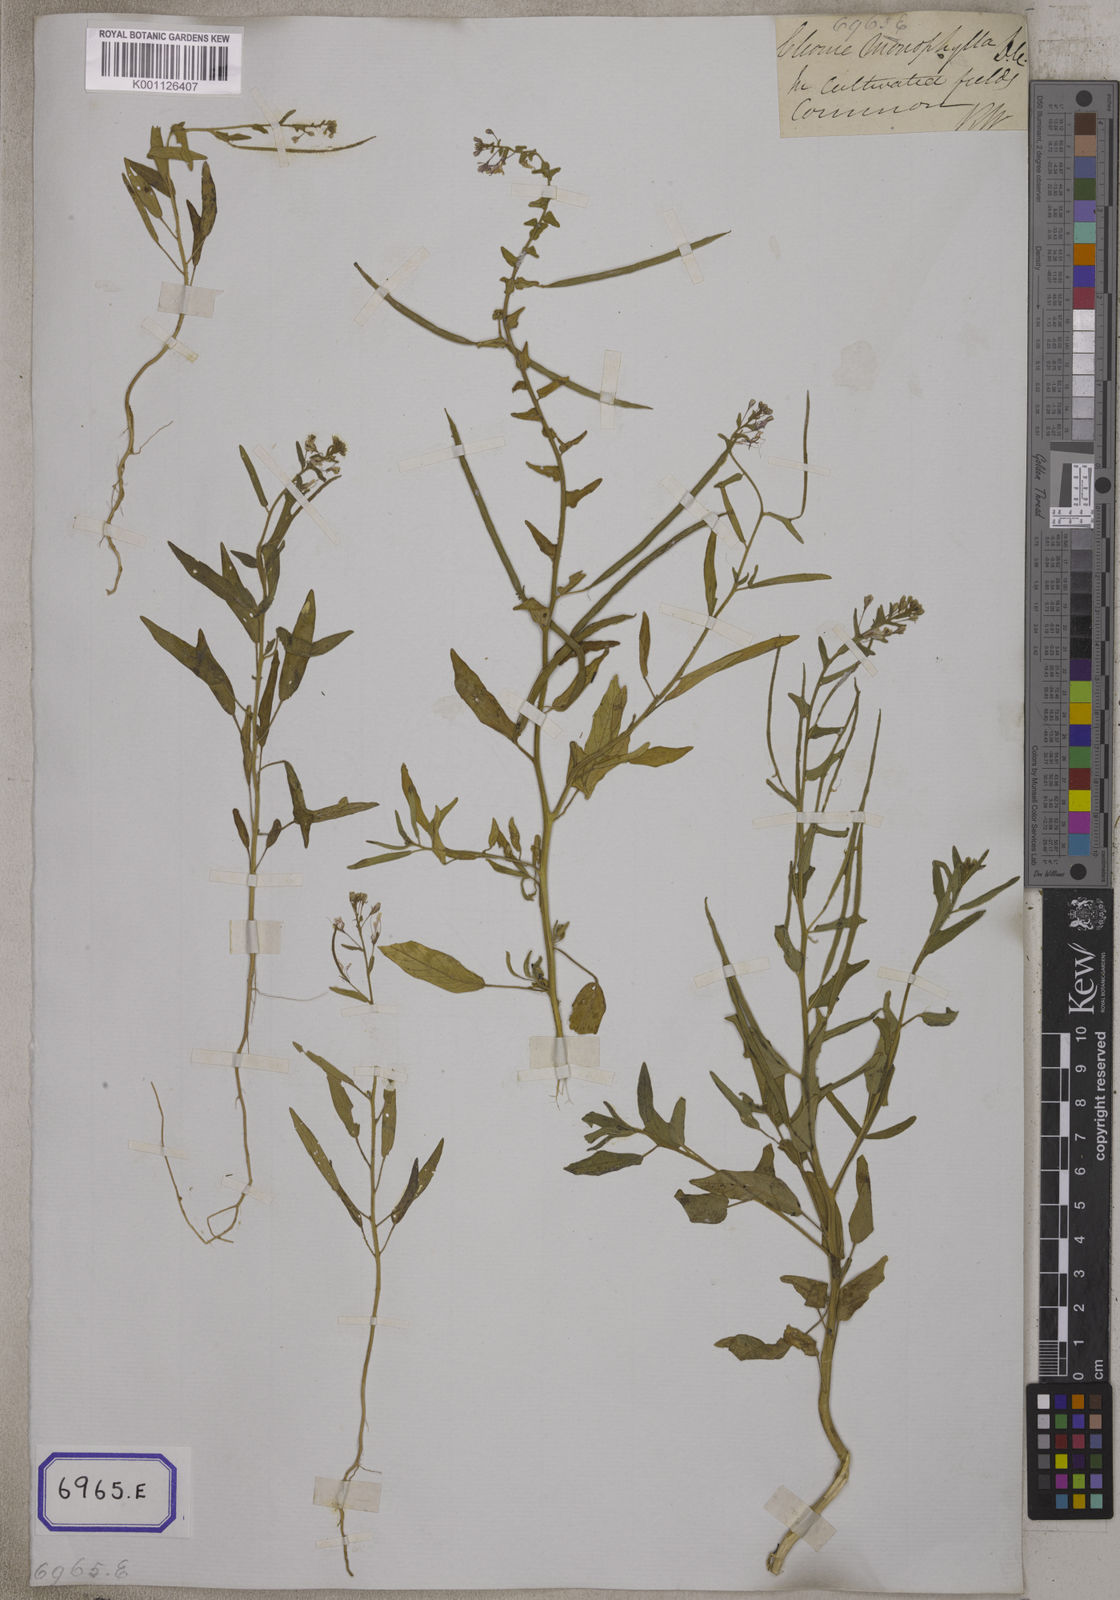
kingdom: Plantae
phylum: Tracheophyta
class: Magnoliopsida
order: Brassicales
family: Cleomaceae
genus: Cleome
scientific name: Cleome
